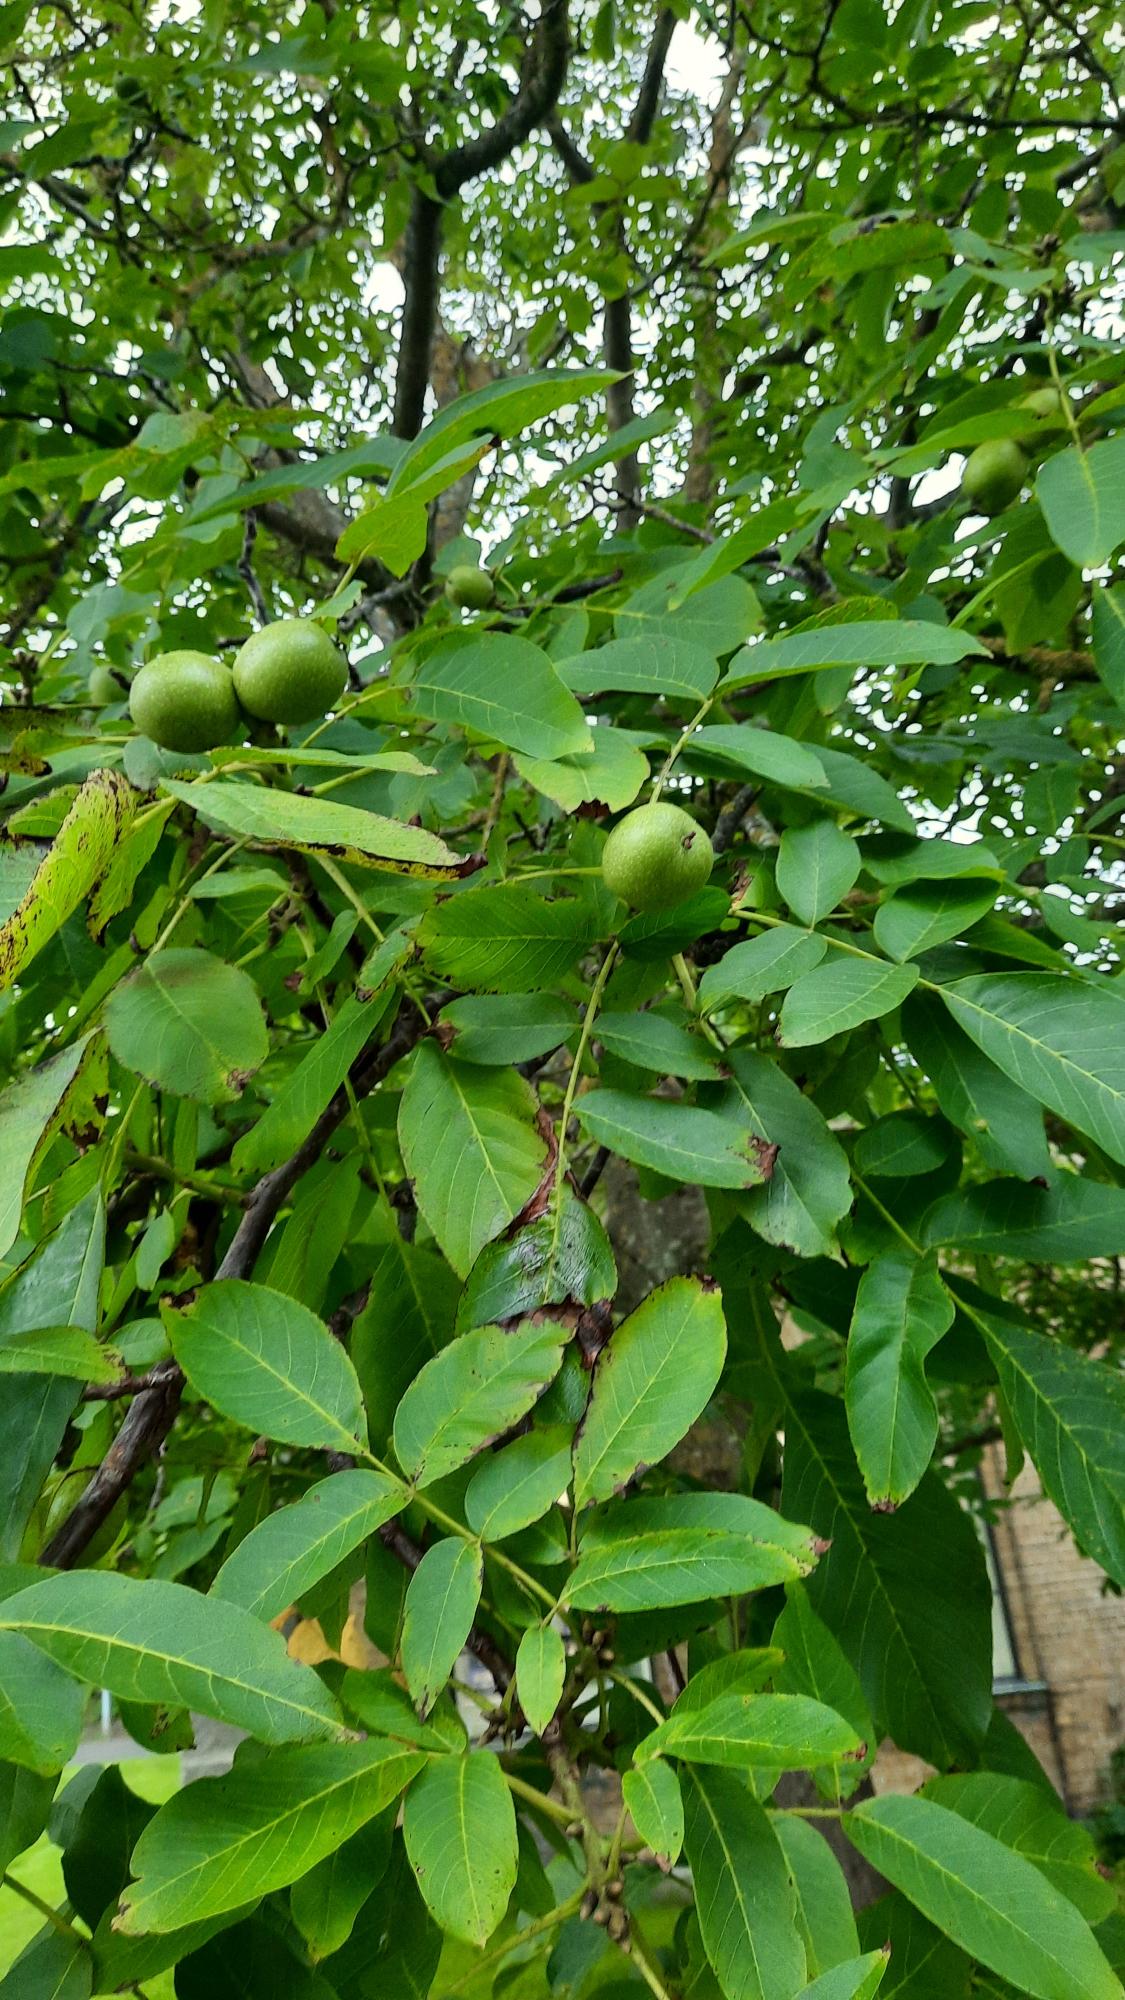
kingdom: Plantae
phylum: Tracheophyta
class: Magnoliopsida
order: Fagales
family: Juglandaceae
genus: Juglans
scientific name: Juglans regia
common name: Almindelig valnød
